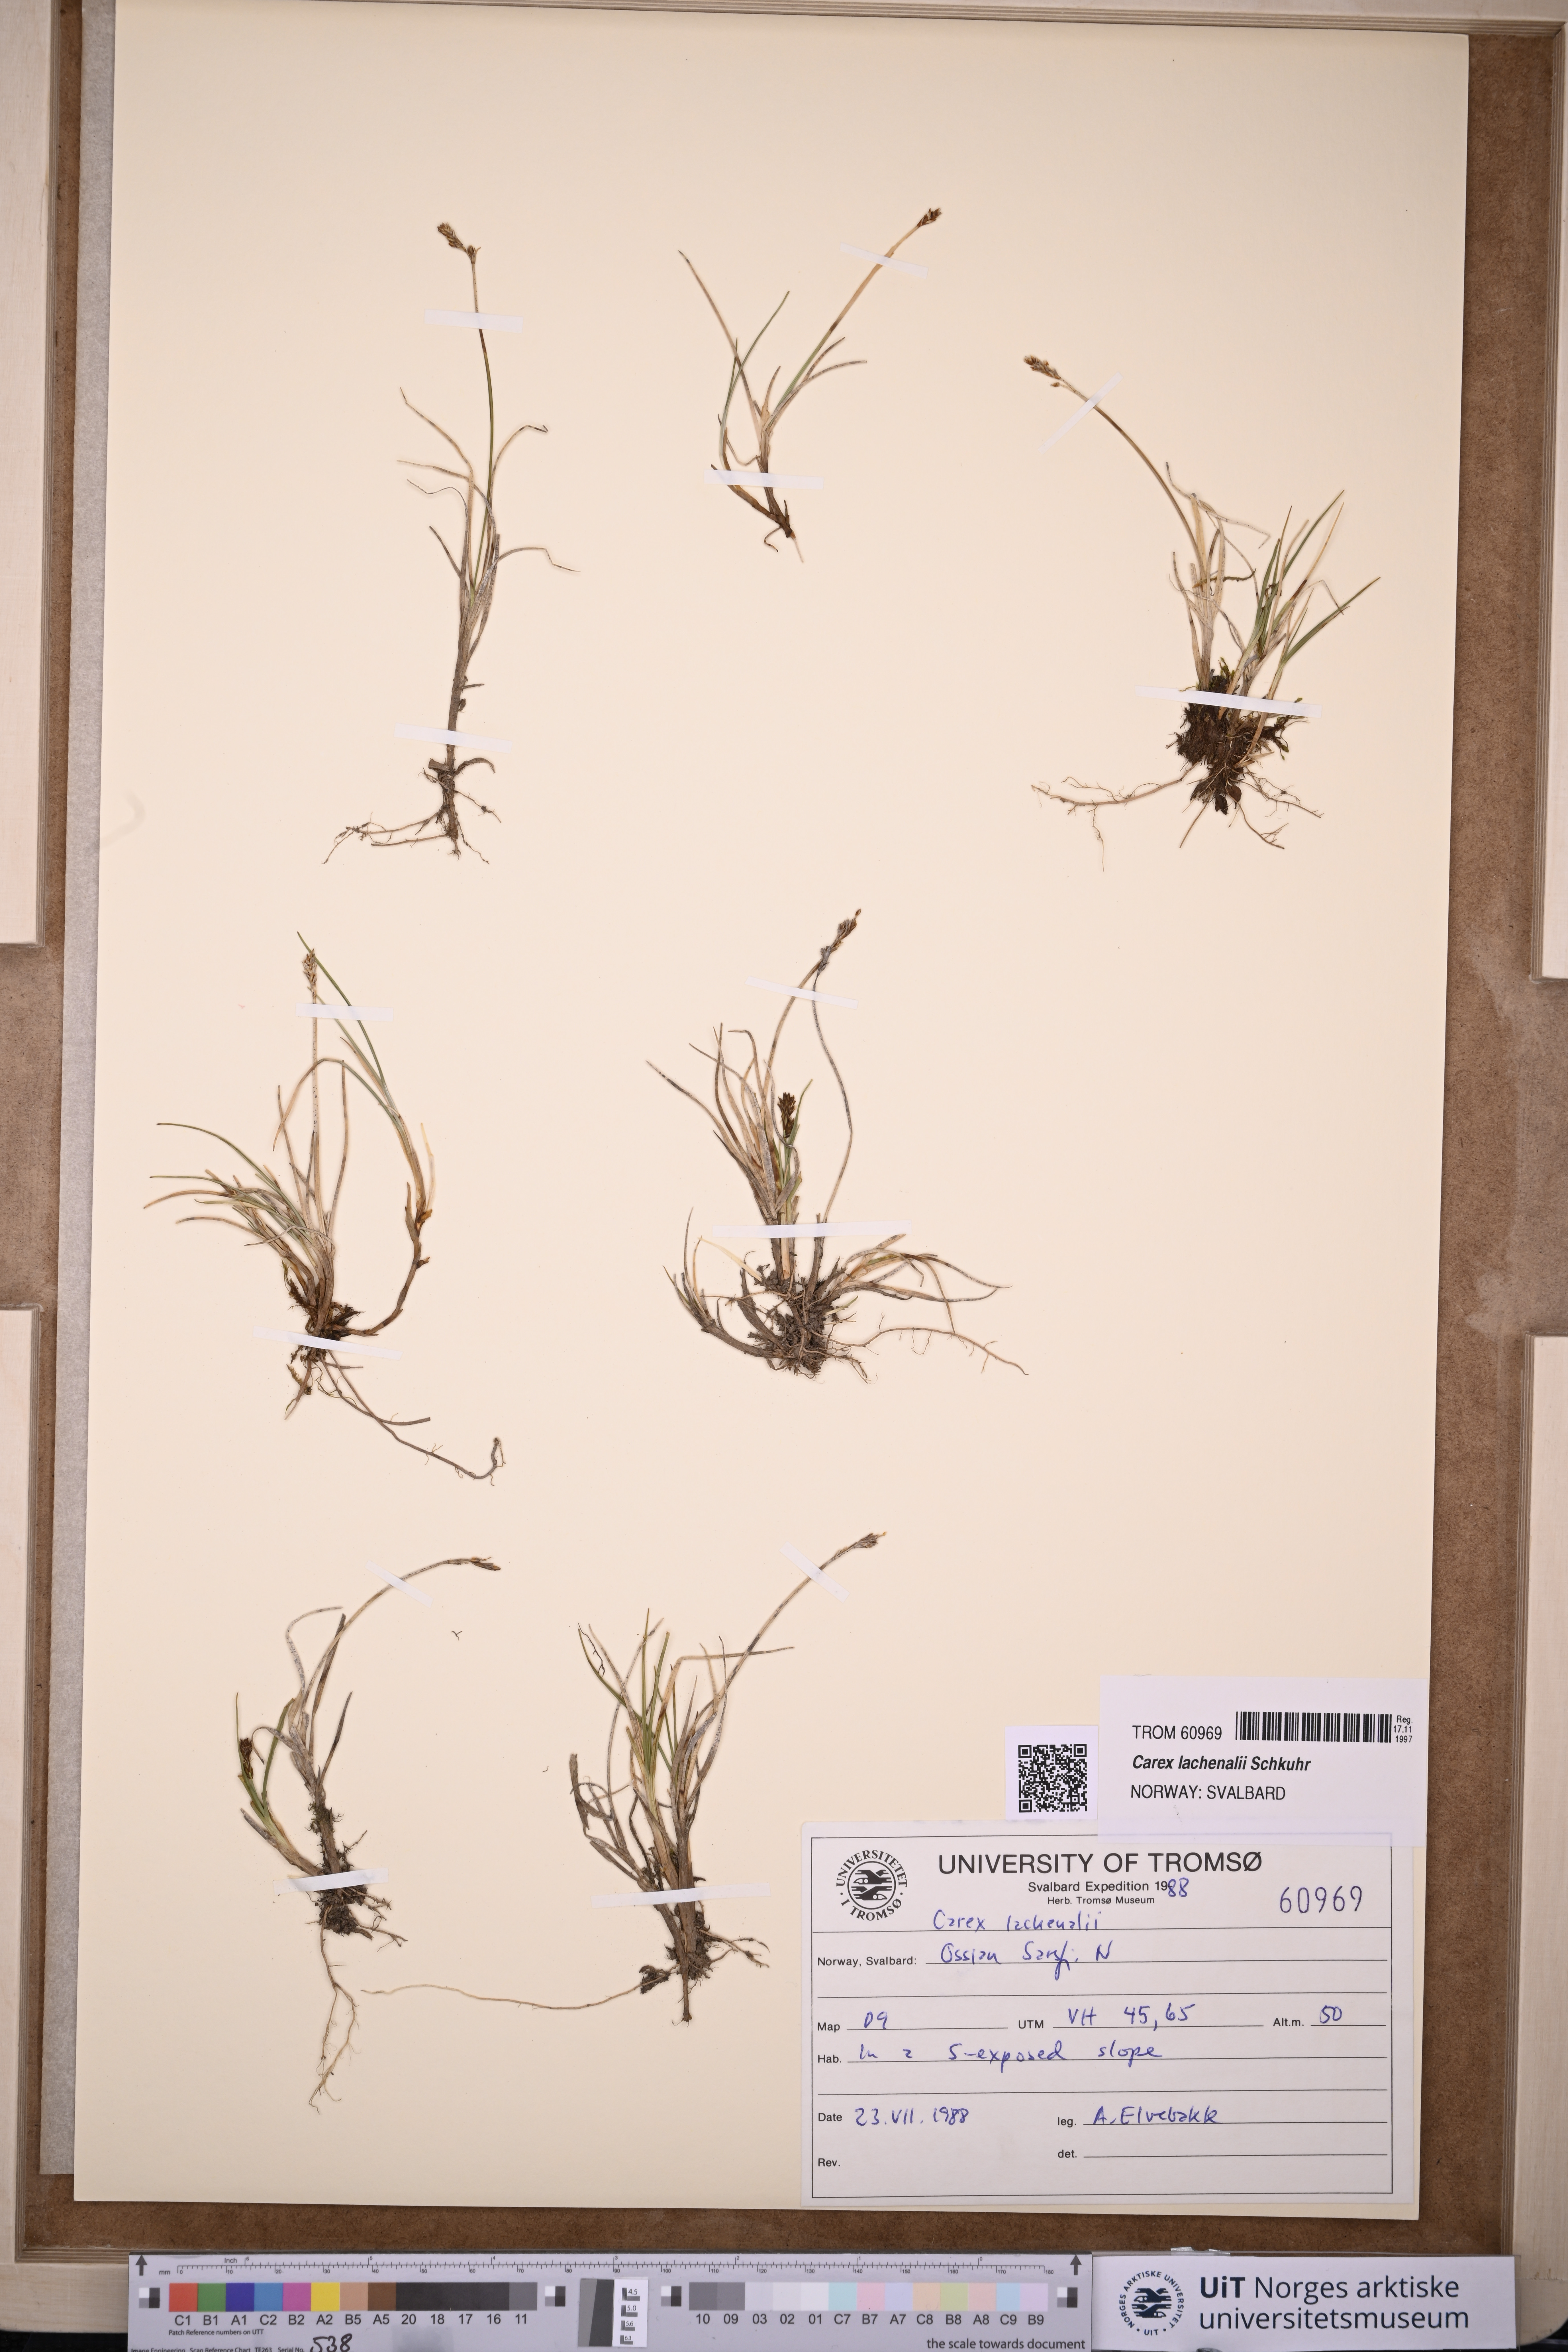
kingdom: Plantae
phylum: Tracheophyta
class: Liliopsida
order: Poales
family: Cyperaceae
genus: Carex
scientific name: Carex lachenalii
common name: Hare's-foot sedge
